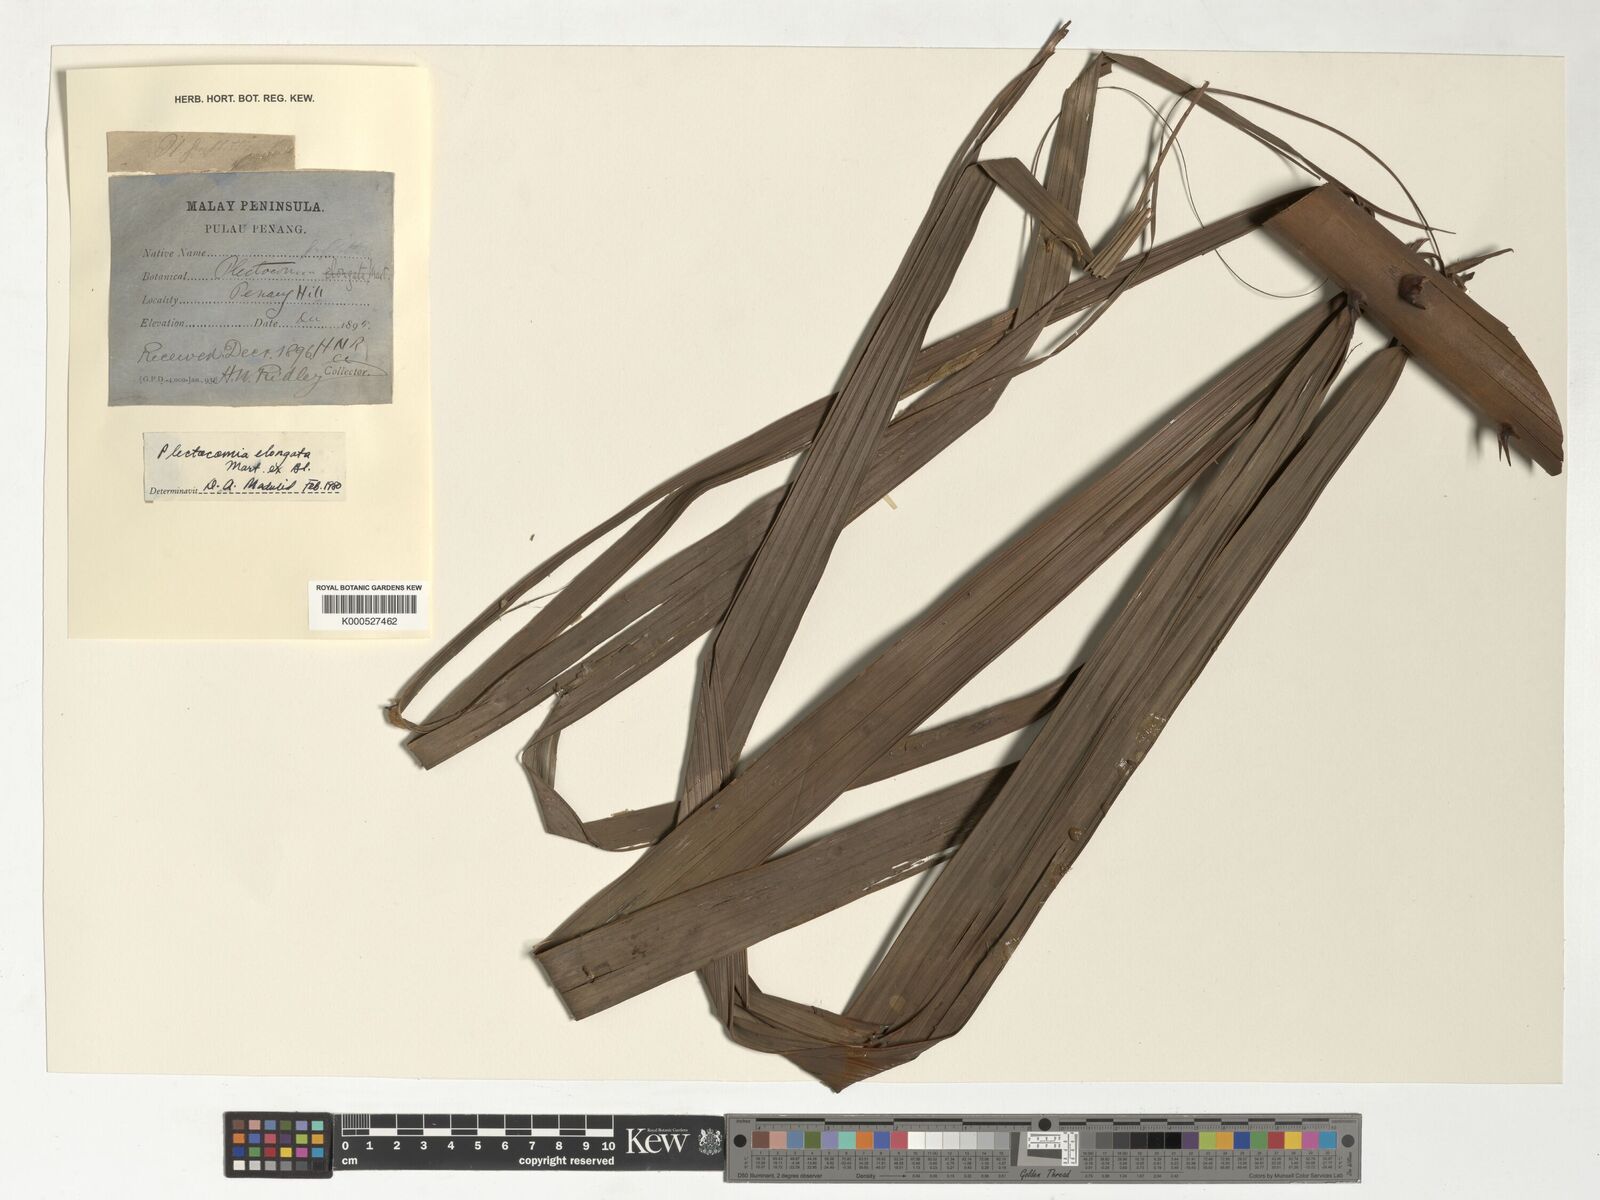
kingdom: Plantae
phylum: Tracheophyta
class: Liliopsida
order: Arecales
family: Arecaceae
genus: Plectocomia
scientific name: Plectocomia elongata
